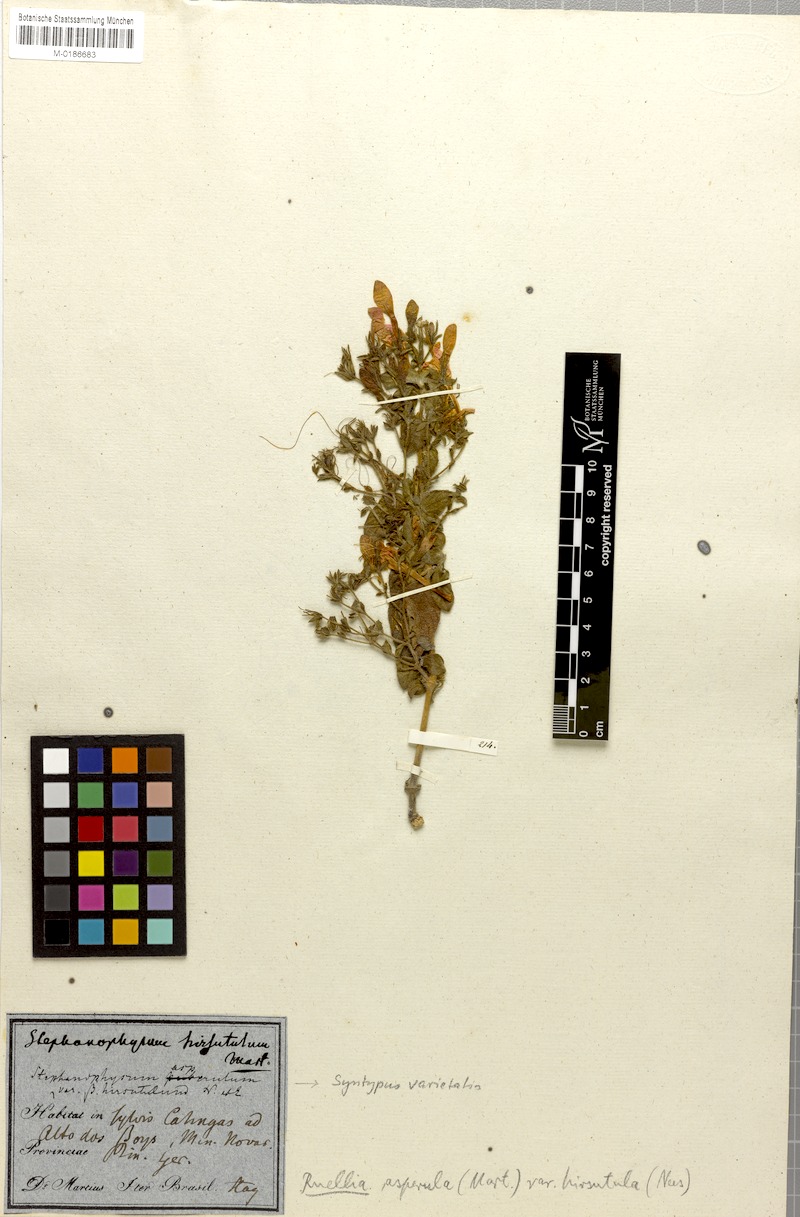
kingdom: Plantae
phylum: Tracheophyta
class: Magnoliopsida
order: Lamiales
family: Acanthaceae
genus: Ruellia
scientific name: Ruellia asperula
